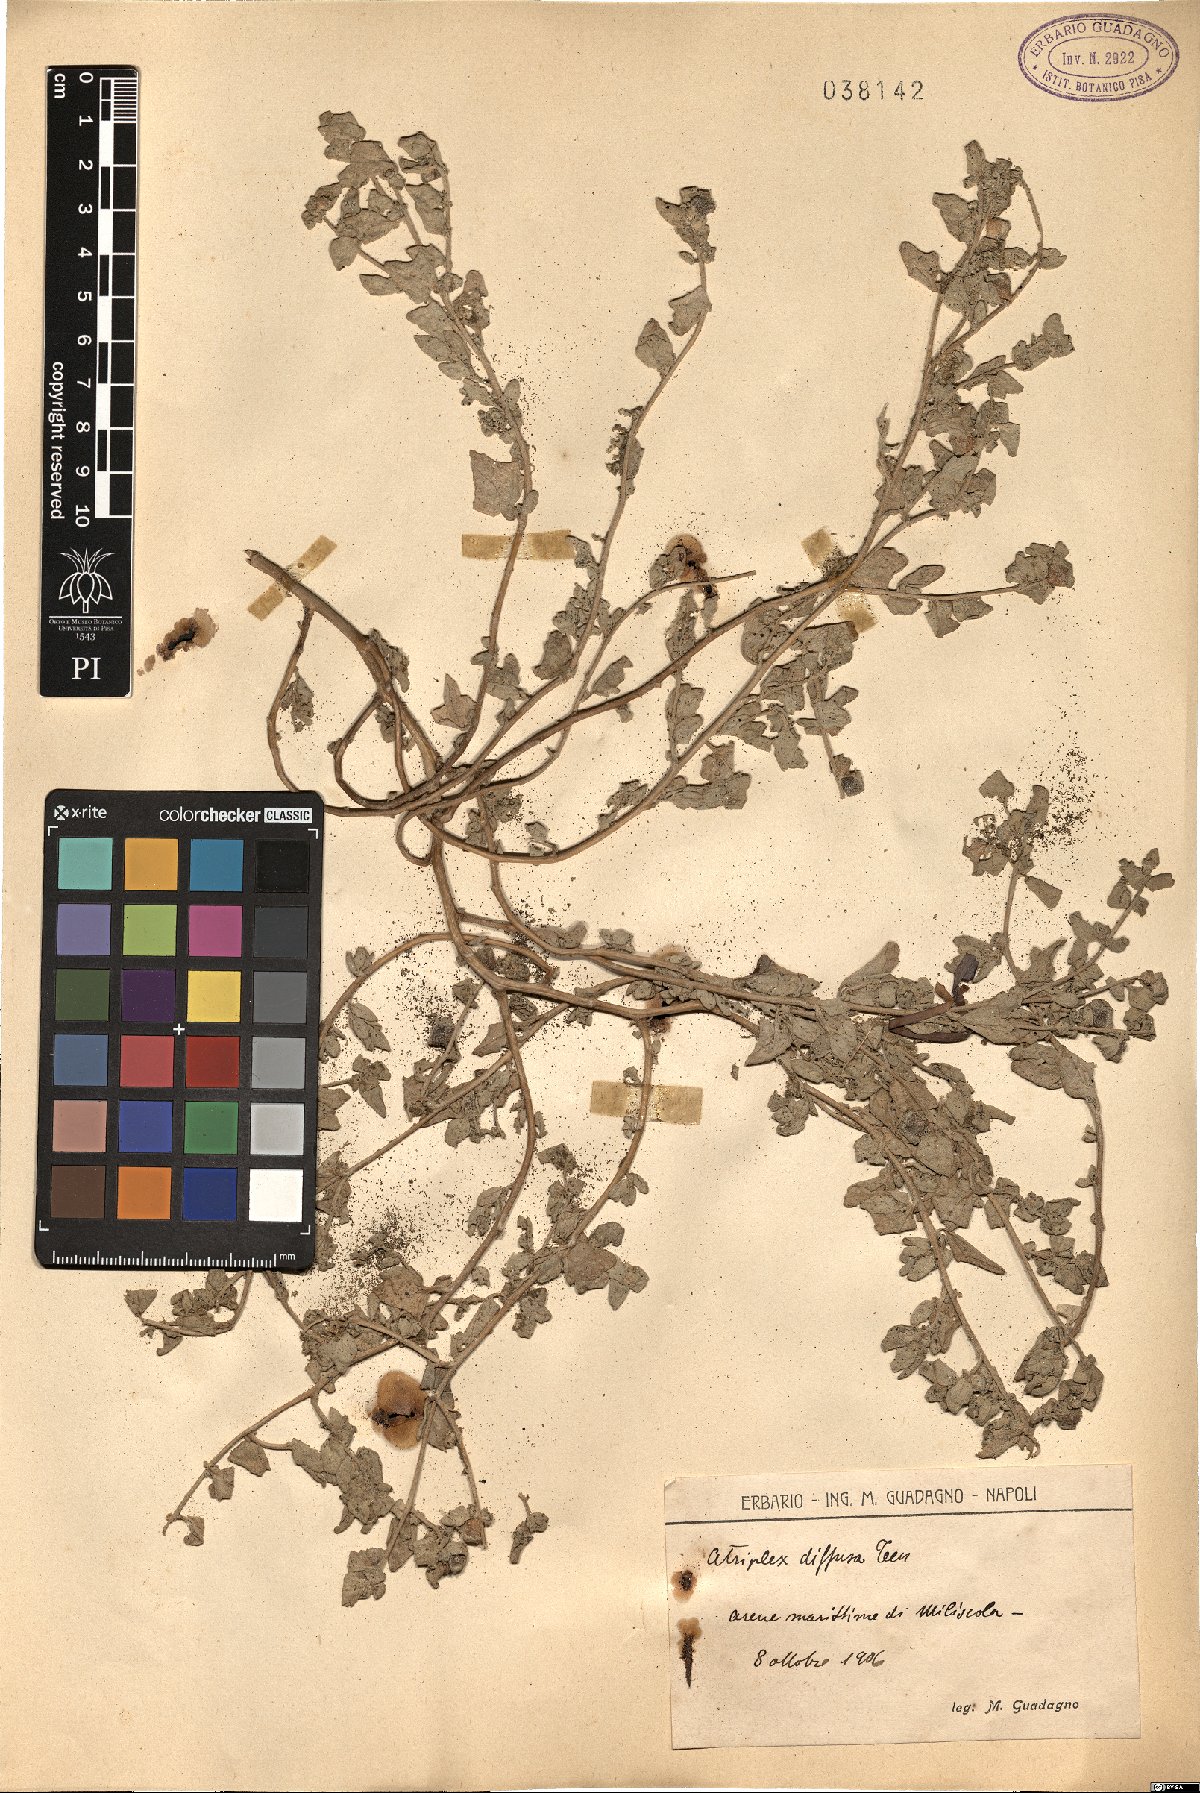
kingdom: Plantae
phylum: Tracheophyta
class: Magnoliopsida
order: Caryophyllales
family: Amaranthaceae
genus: Atriplex
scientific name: Atriplex tatarica
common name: Tatarian orache
